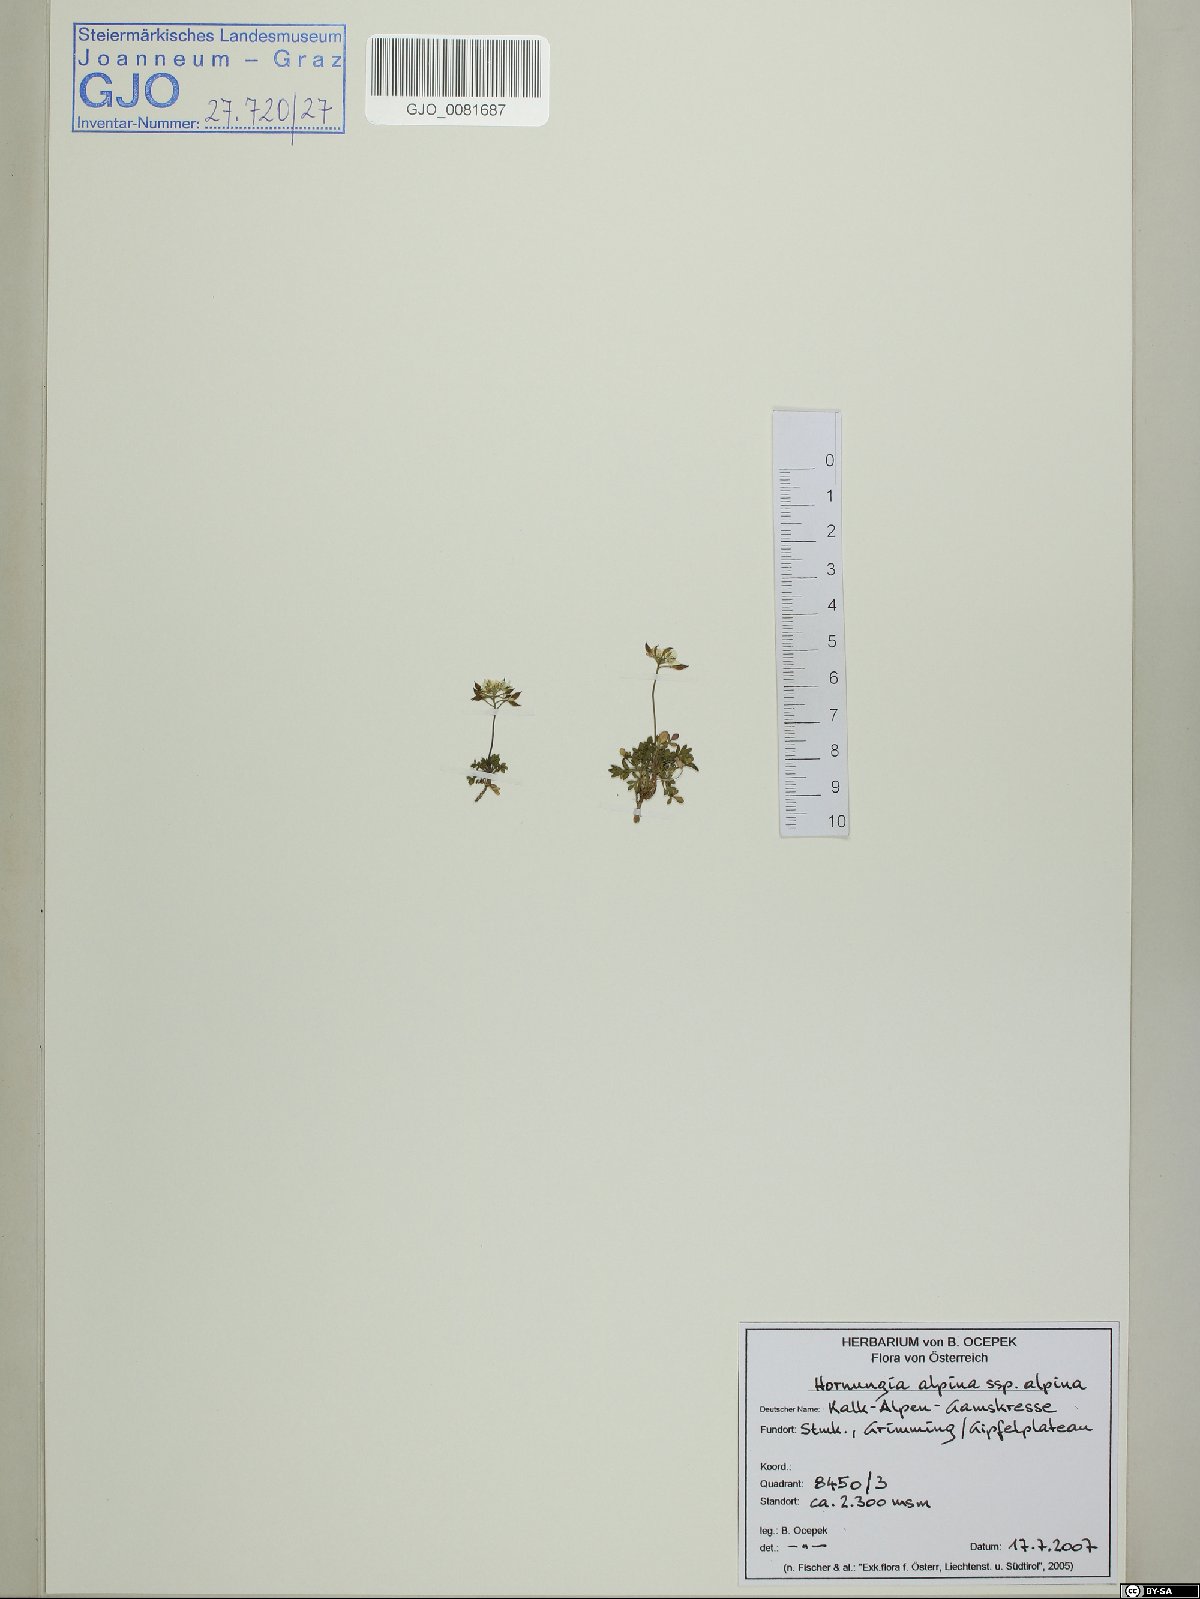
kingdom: Plantae
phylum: Tracheophyta
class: Magnoliopsida
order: Brassicales
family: Brassicaceae
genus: Hornungia
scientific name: Hornungia alpina
